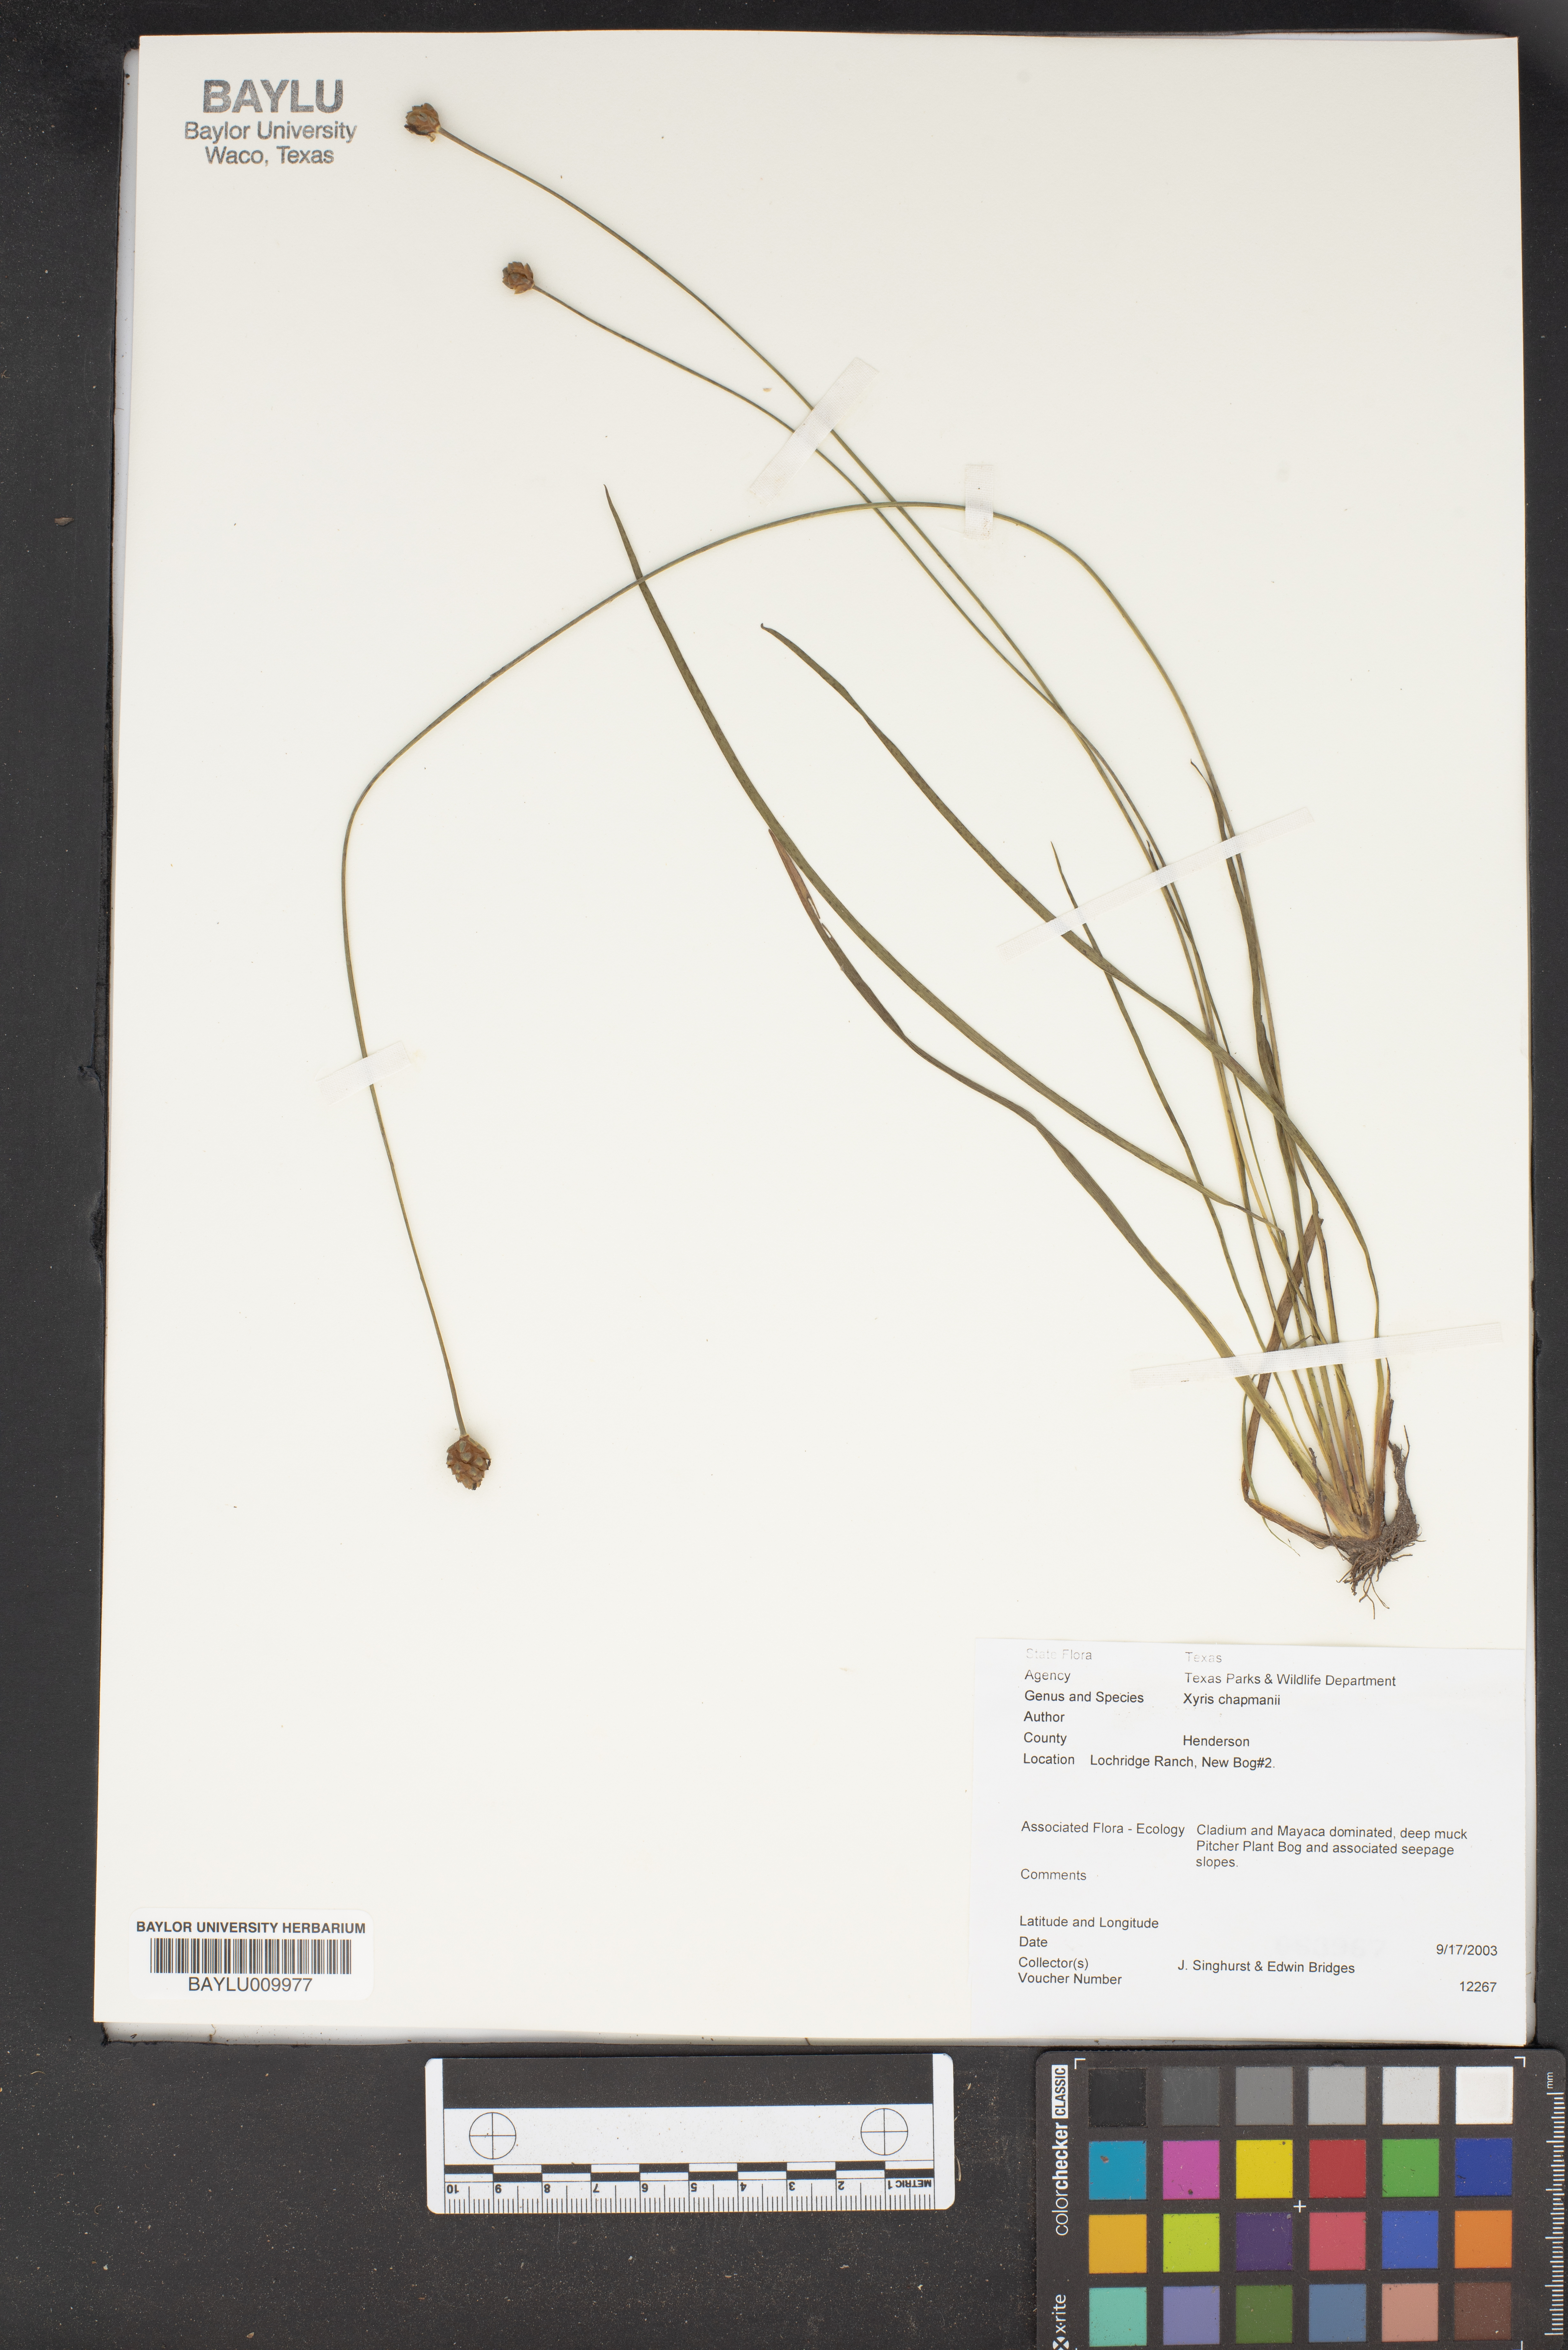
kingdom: Plantae
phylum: Tracheophyta
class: Liliopsida
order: Poales
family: Xyridaceae
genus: Xyris
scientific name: Xyris chapmanii
